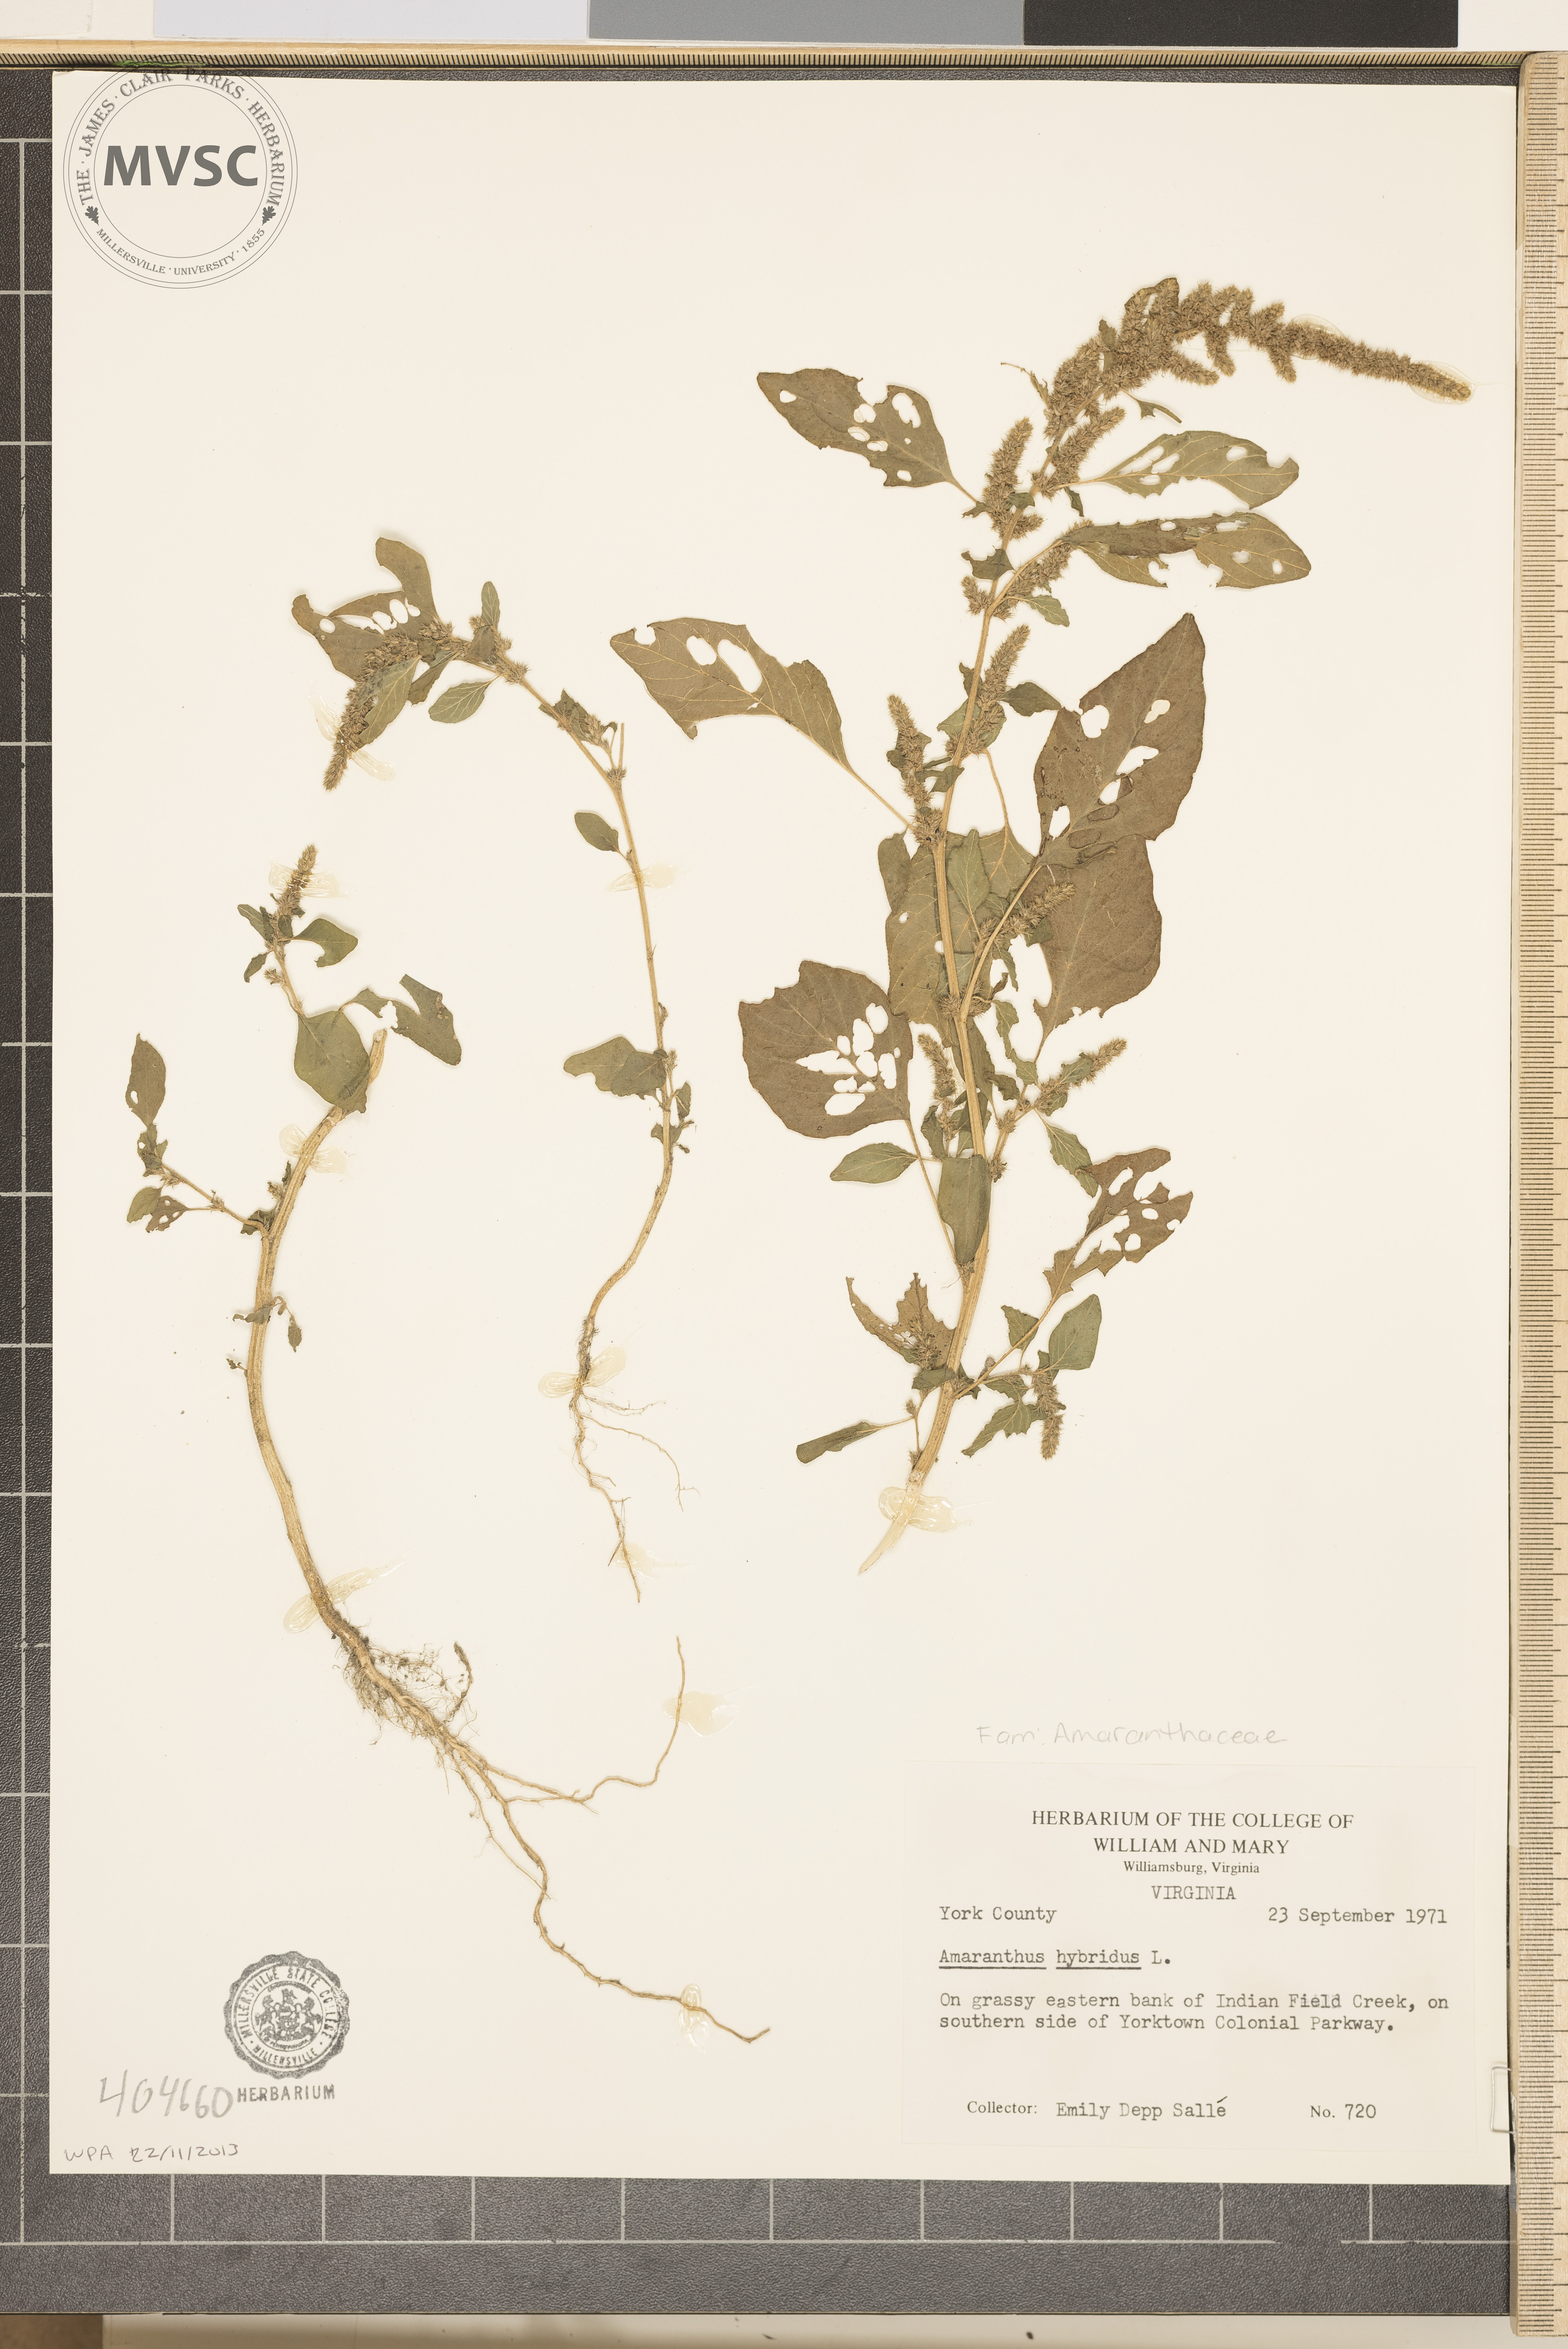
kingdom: Plantae
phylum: Tracheophyta
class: Magnoliopsida
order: Caryophyllales
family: Amaranthaceae
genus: Amaranthus
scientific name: Amaranthus hybridus
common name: Green amaranth
